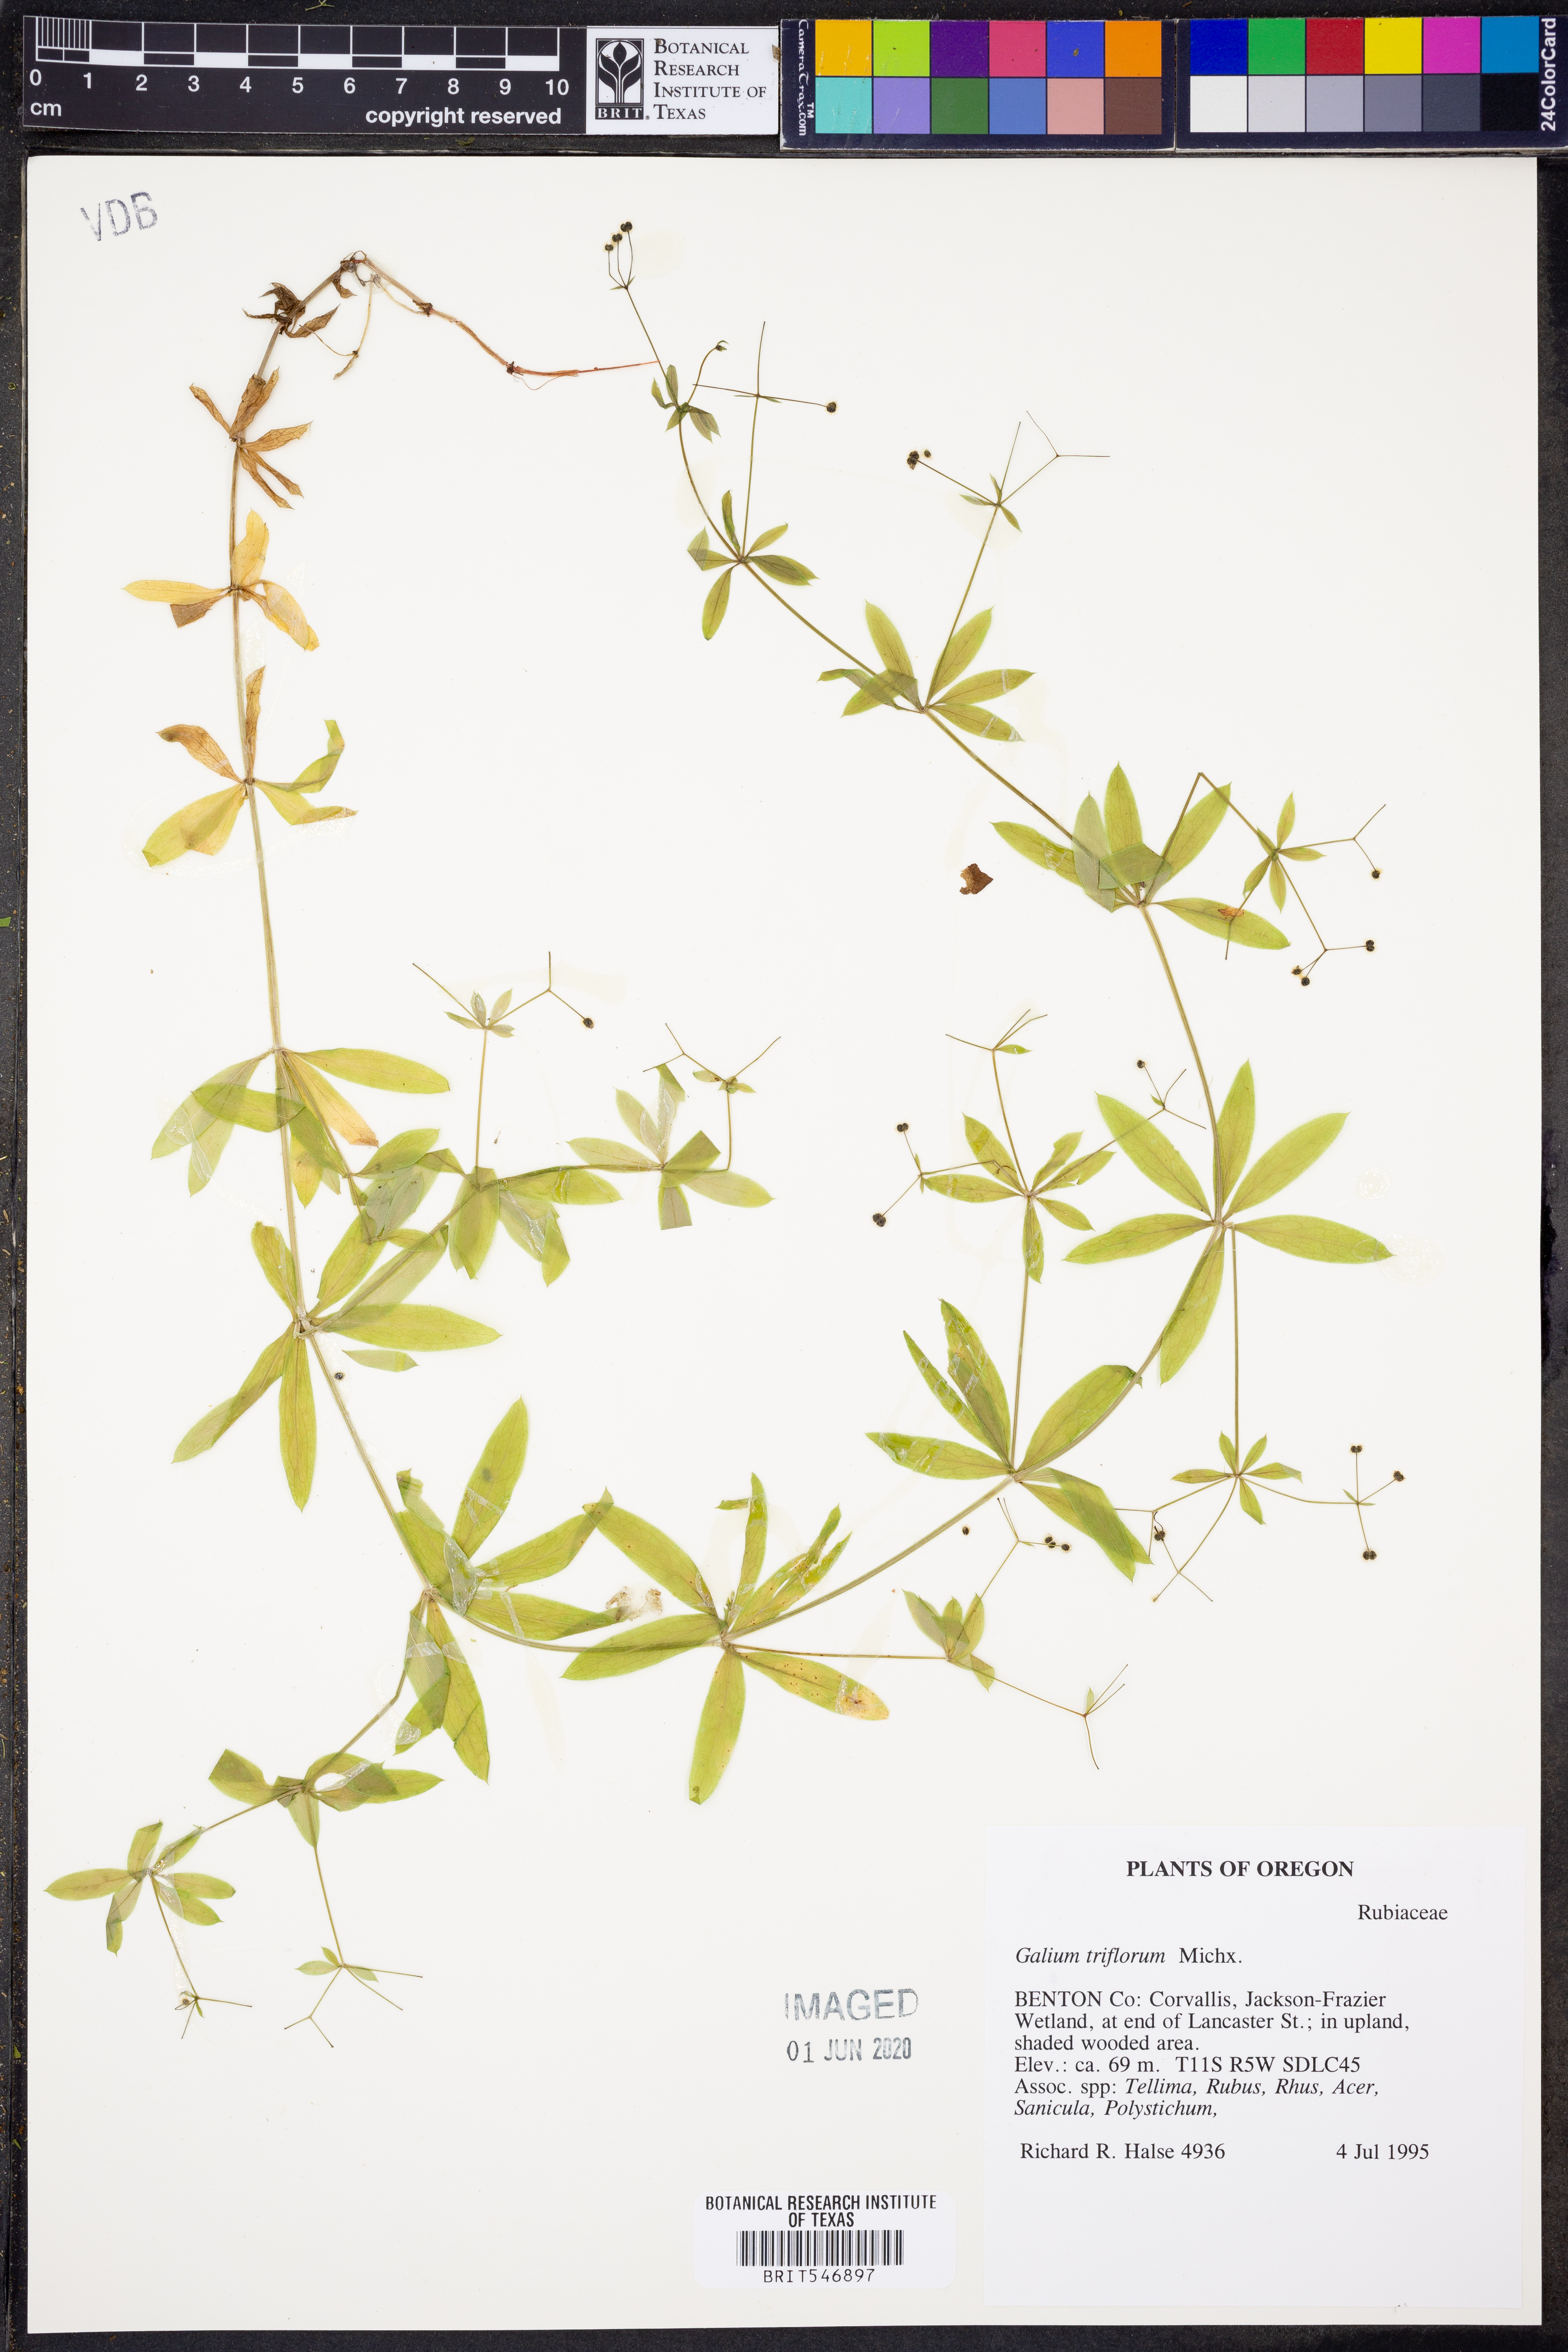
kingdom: Plantae
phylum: Tracheophyta
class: Magnoliopsida
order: Gentianales
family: Rubiaceae
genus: Galium
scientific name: Galium triflorum
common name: Fragrant bedstraw
